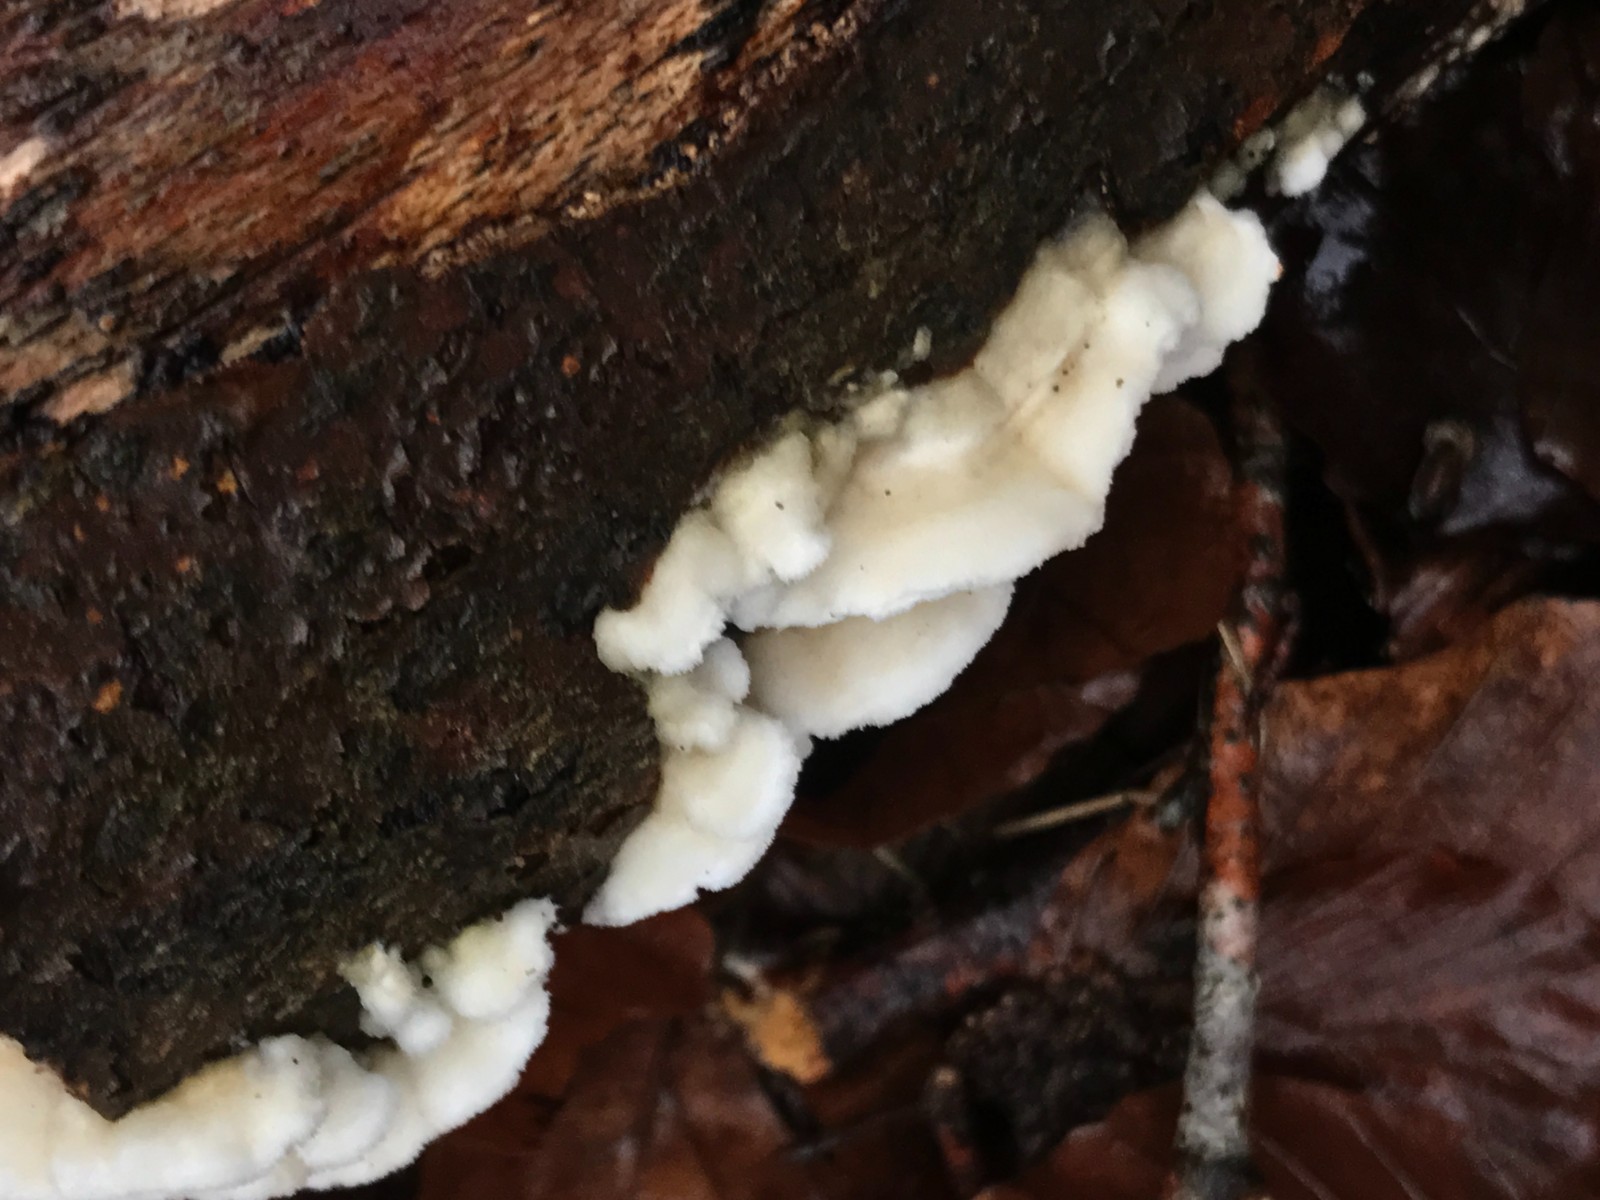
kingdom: Fungi
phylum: Basidiomycota
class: Agaricomycetes
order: Polyporales
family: Irpicaceae
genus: Byssomerulius
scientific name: Byssomerulius corium
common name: læder-åresvamp
